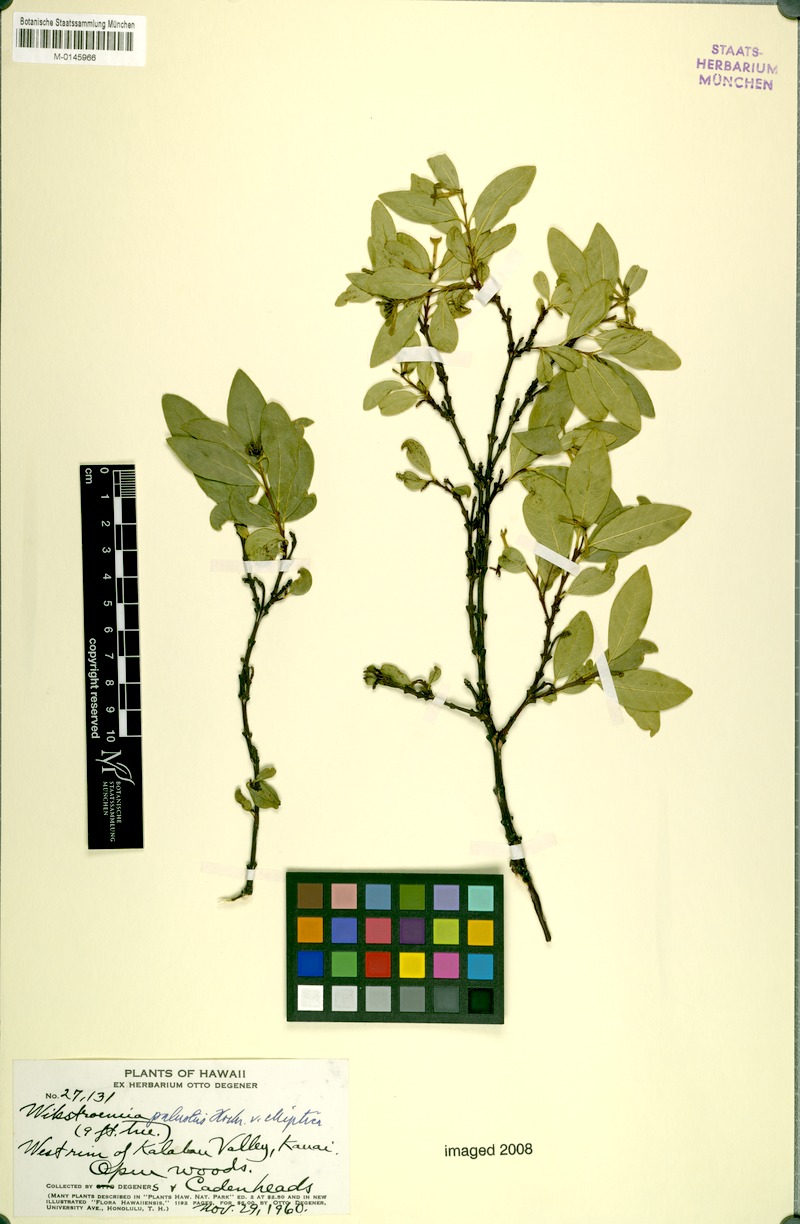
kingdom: Plantae
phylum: Tracheophyta
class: Magnoliopsida
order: Malvales
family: Thymelaeaceae
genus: Wikstroemia
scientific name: Wikstroemia oahuensis
